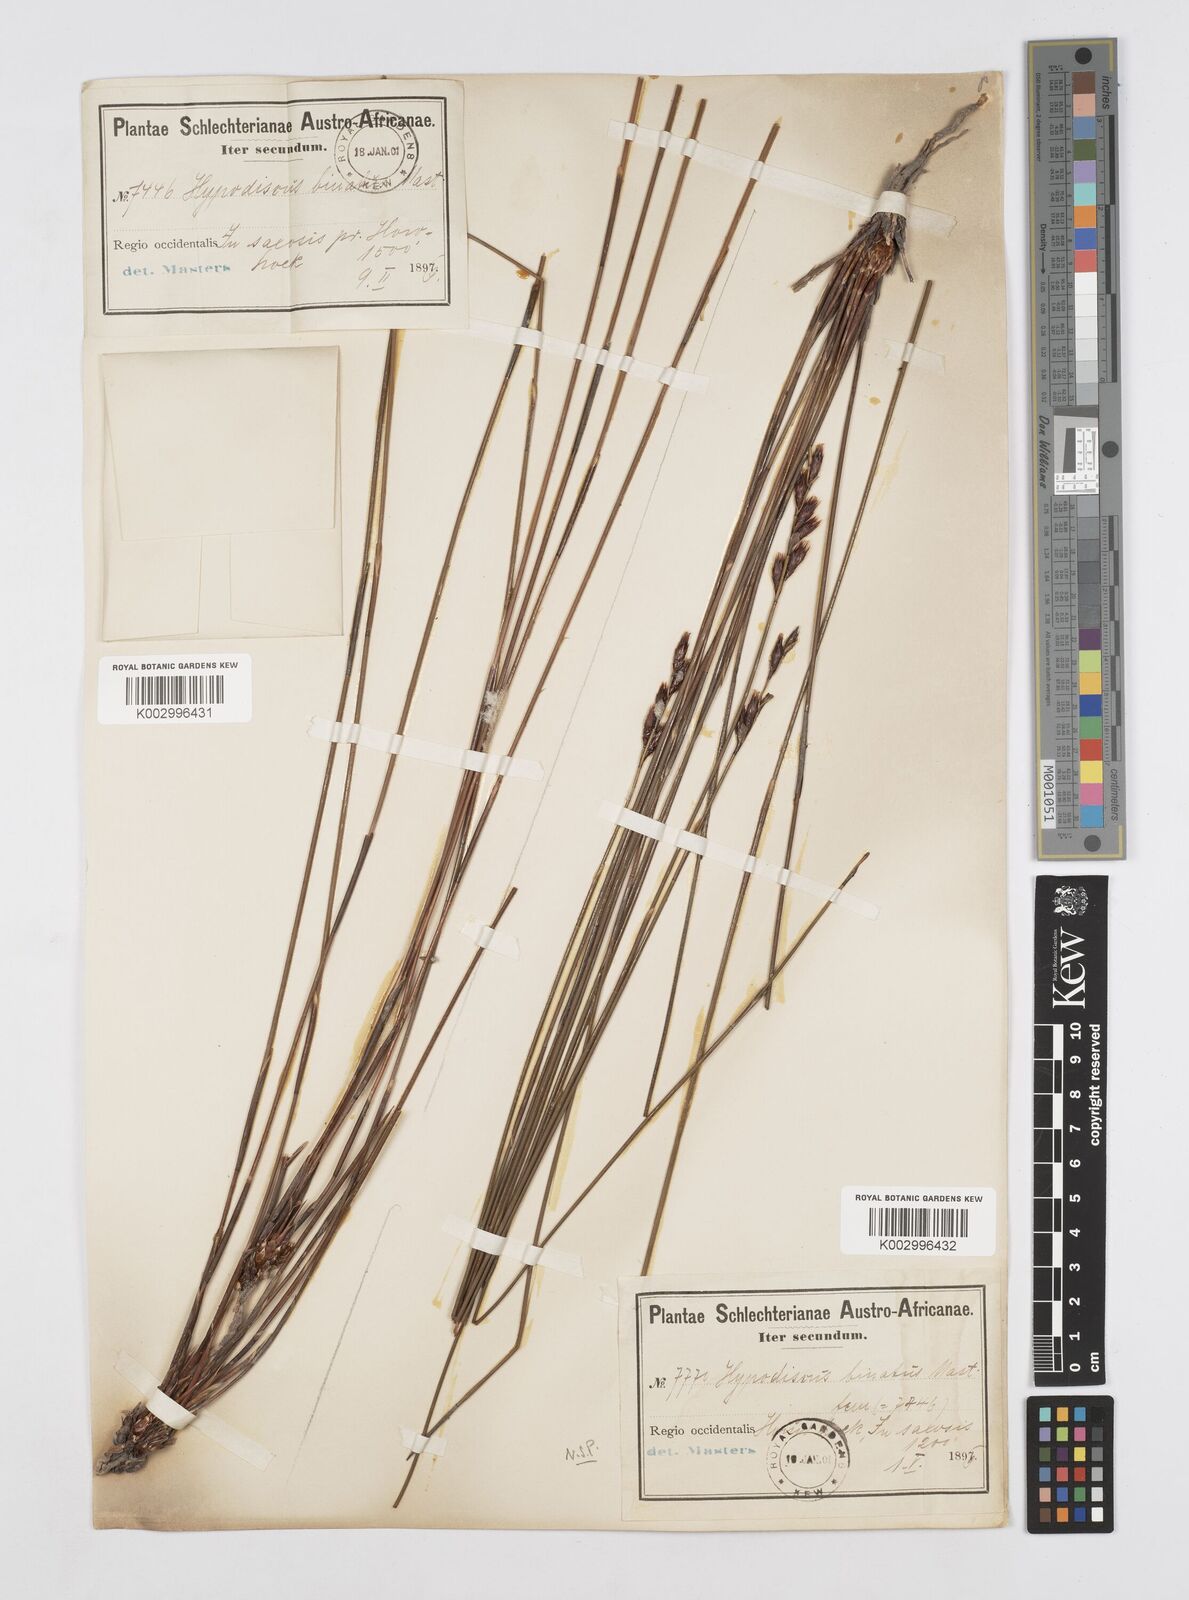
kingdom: Plantae
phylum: Tracheophyta
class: Liliopsida
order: Poales
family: Restionaceae
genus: Hypodiscus
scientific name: Hypodiscus laevigatus
